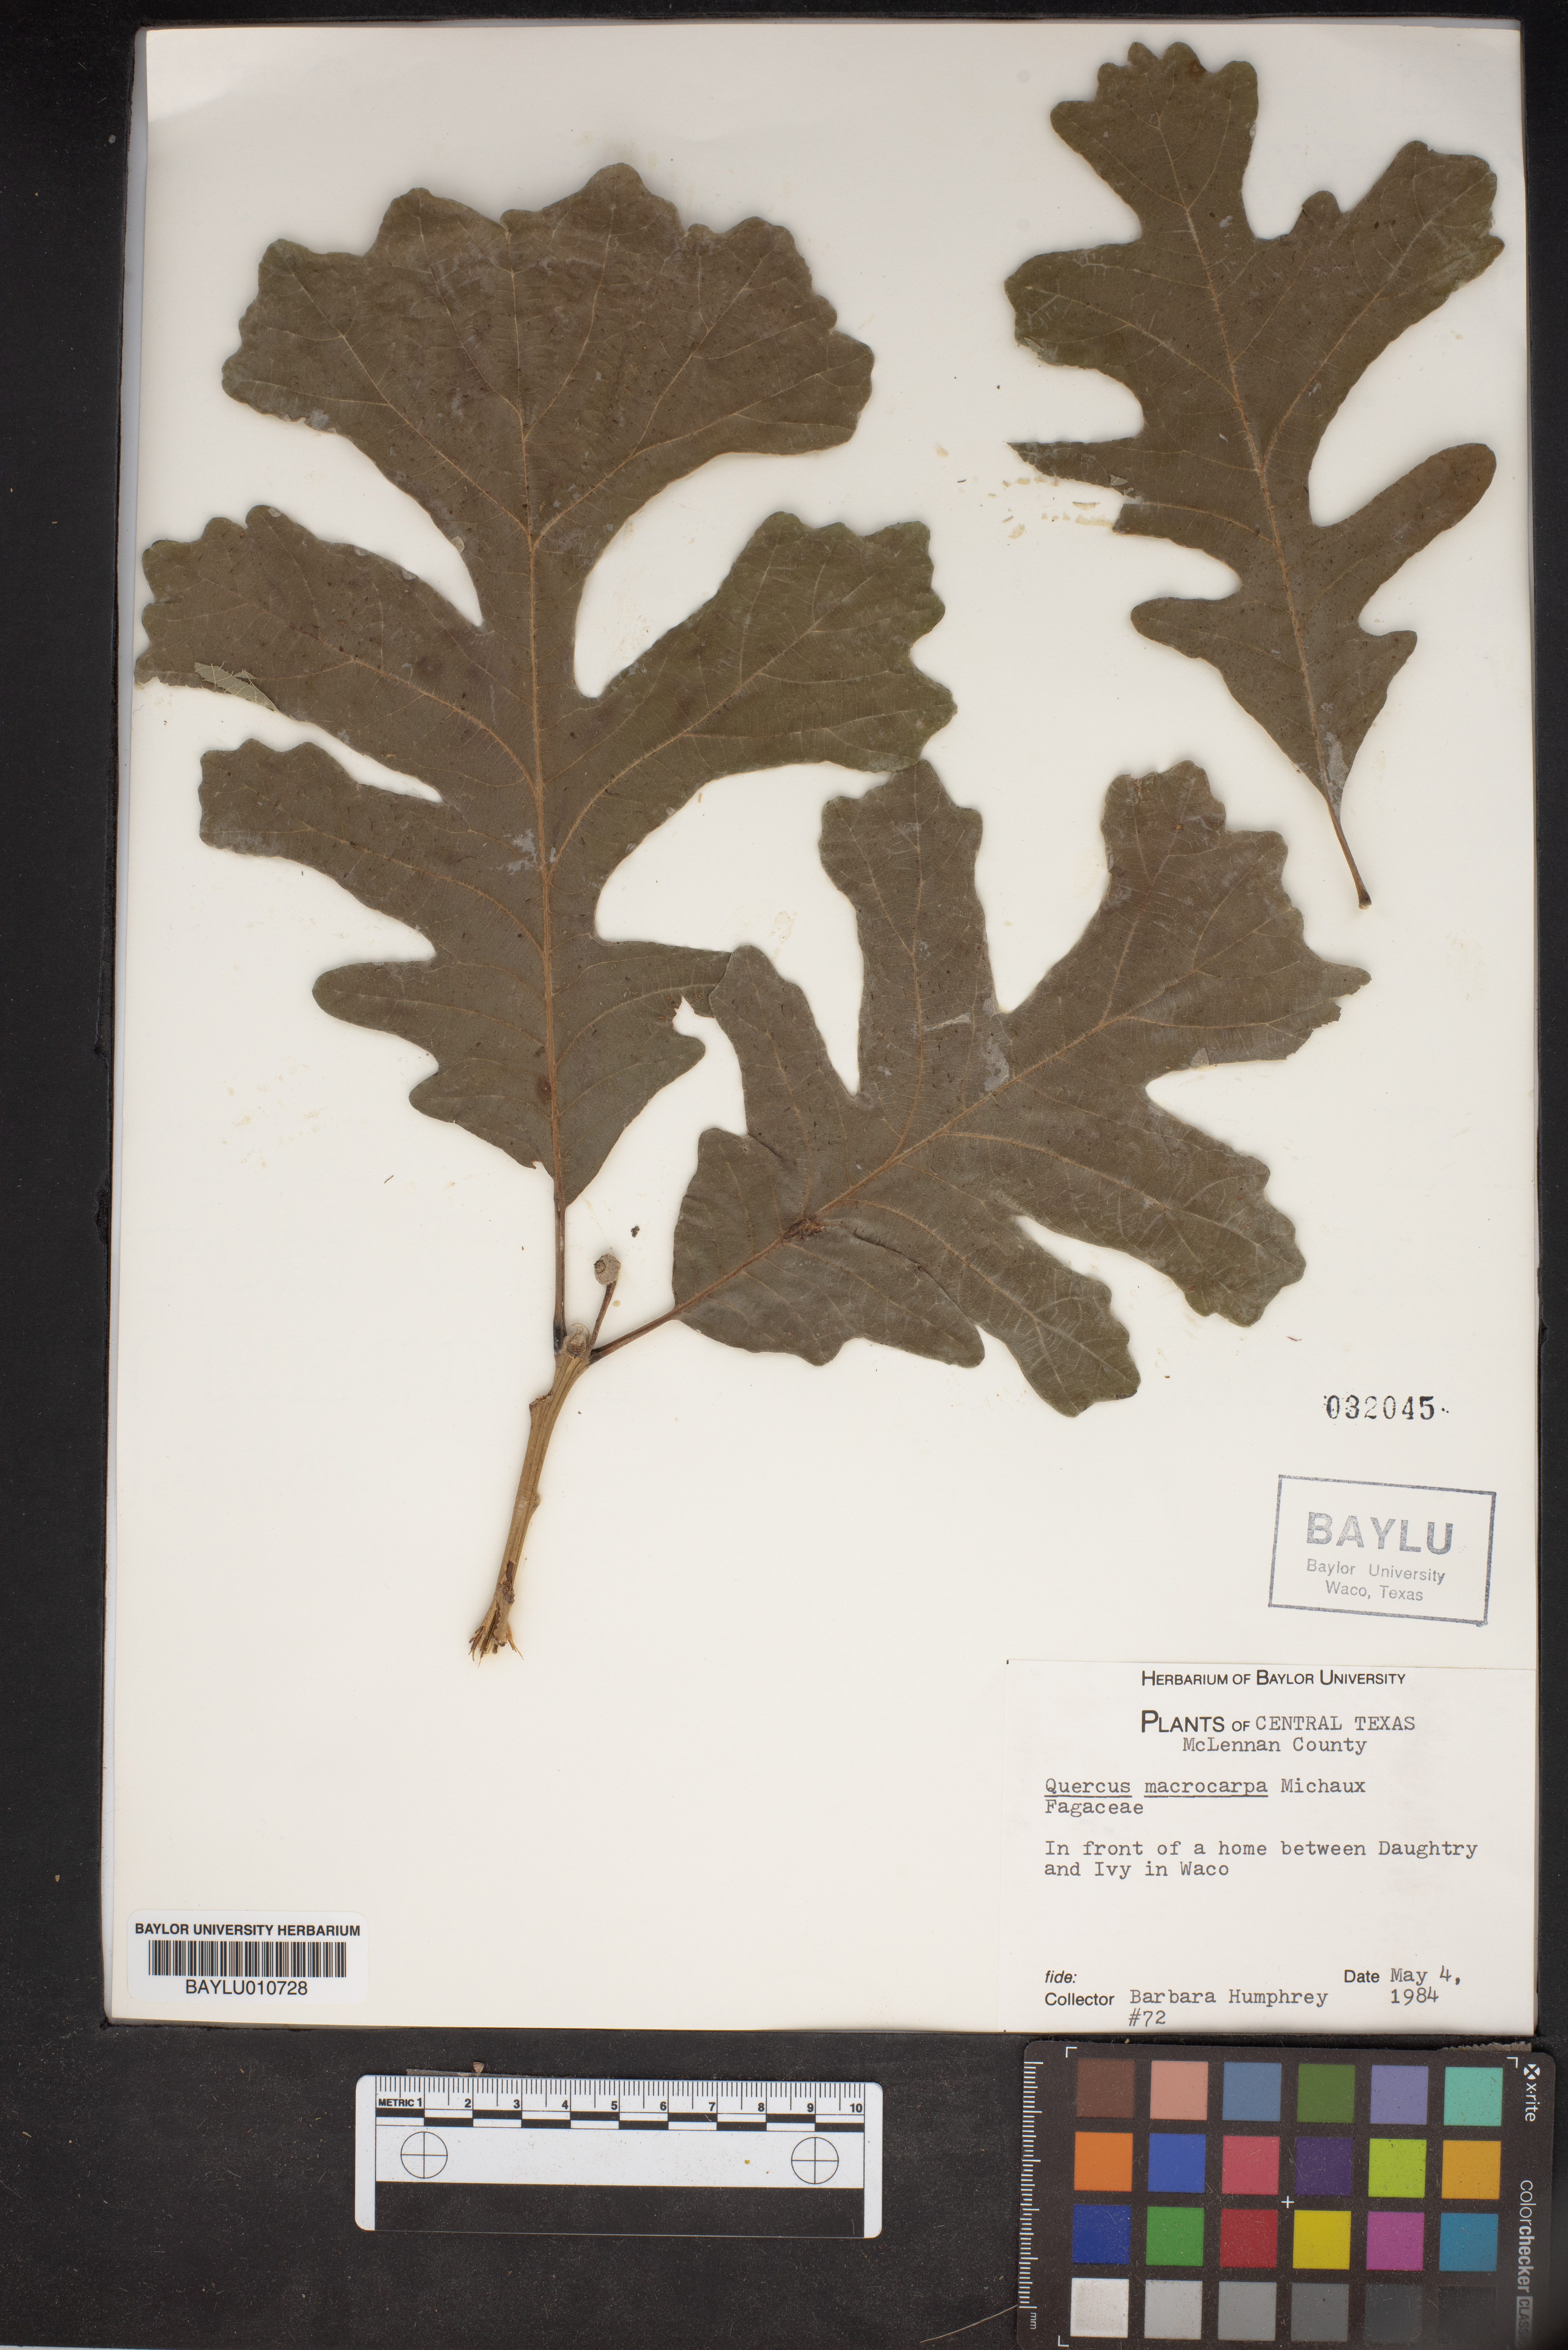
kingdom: Plantae
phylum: Tracheophyta
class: Magnoliopsida
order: Fagales
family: Fagaceae
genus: Quercus
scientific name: Quercus macrocarpa
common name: Bur oak
